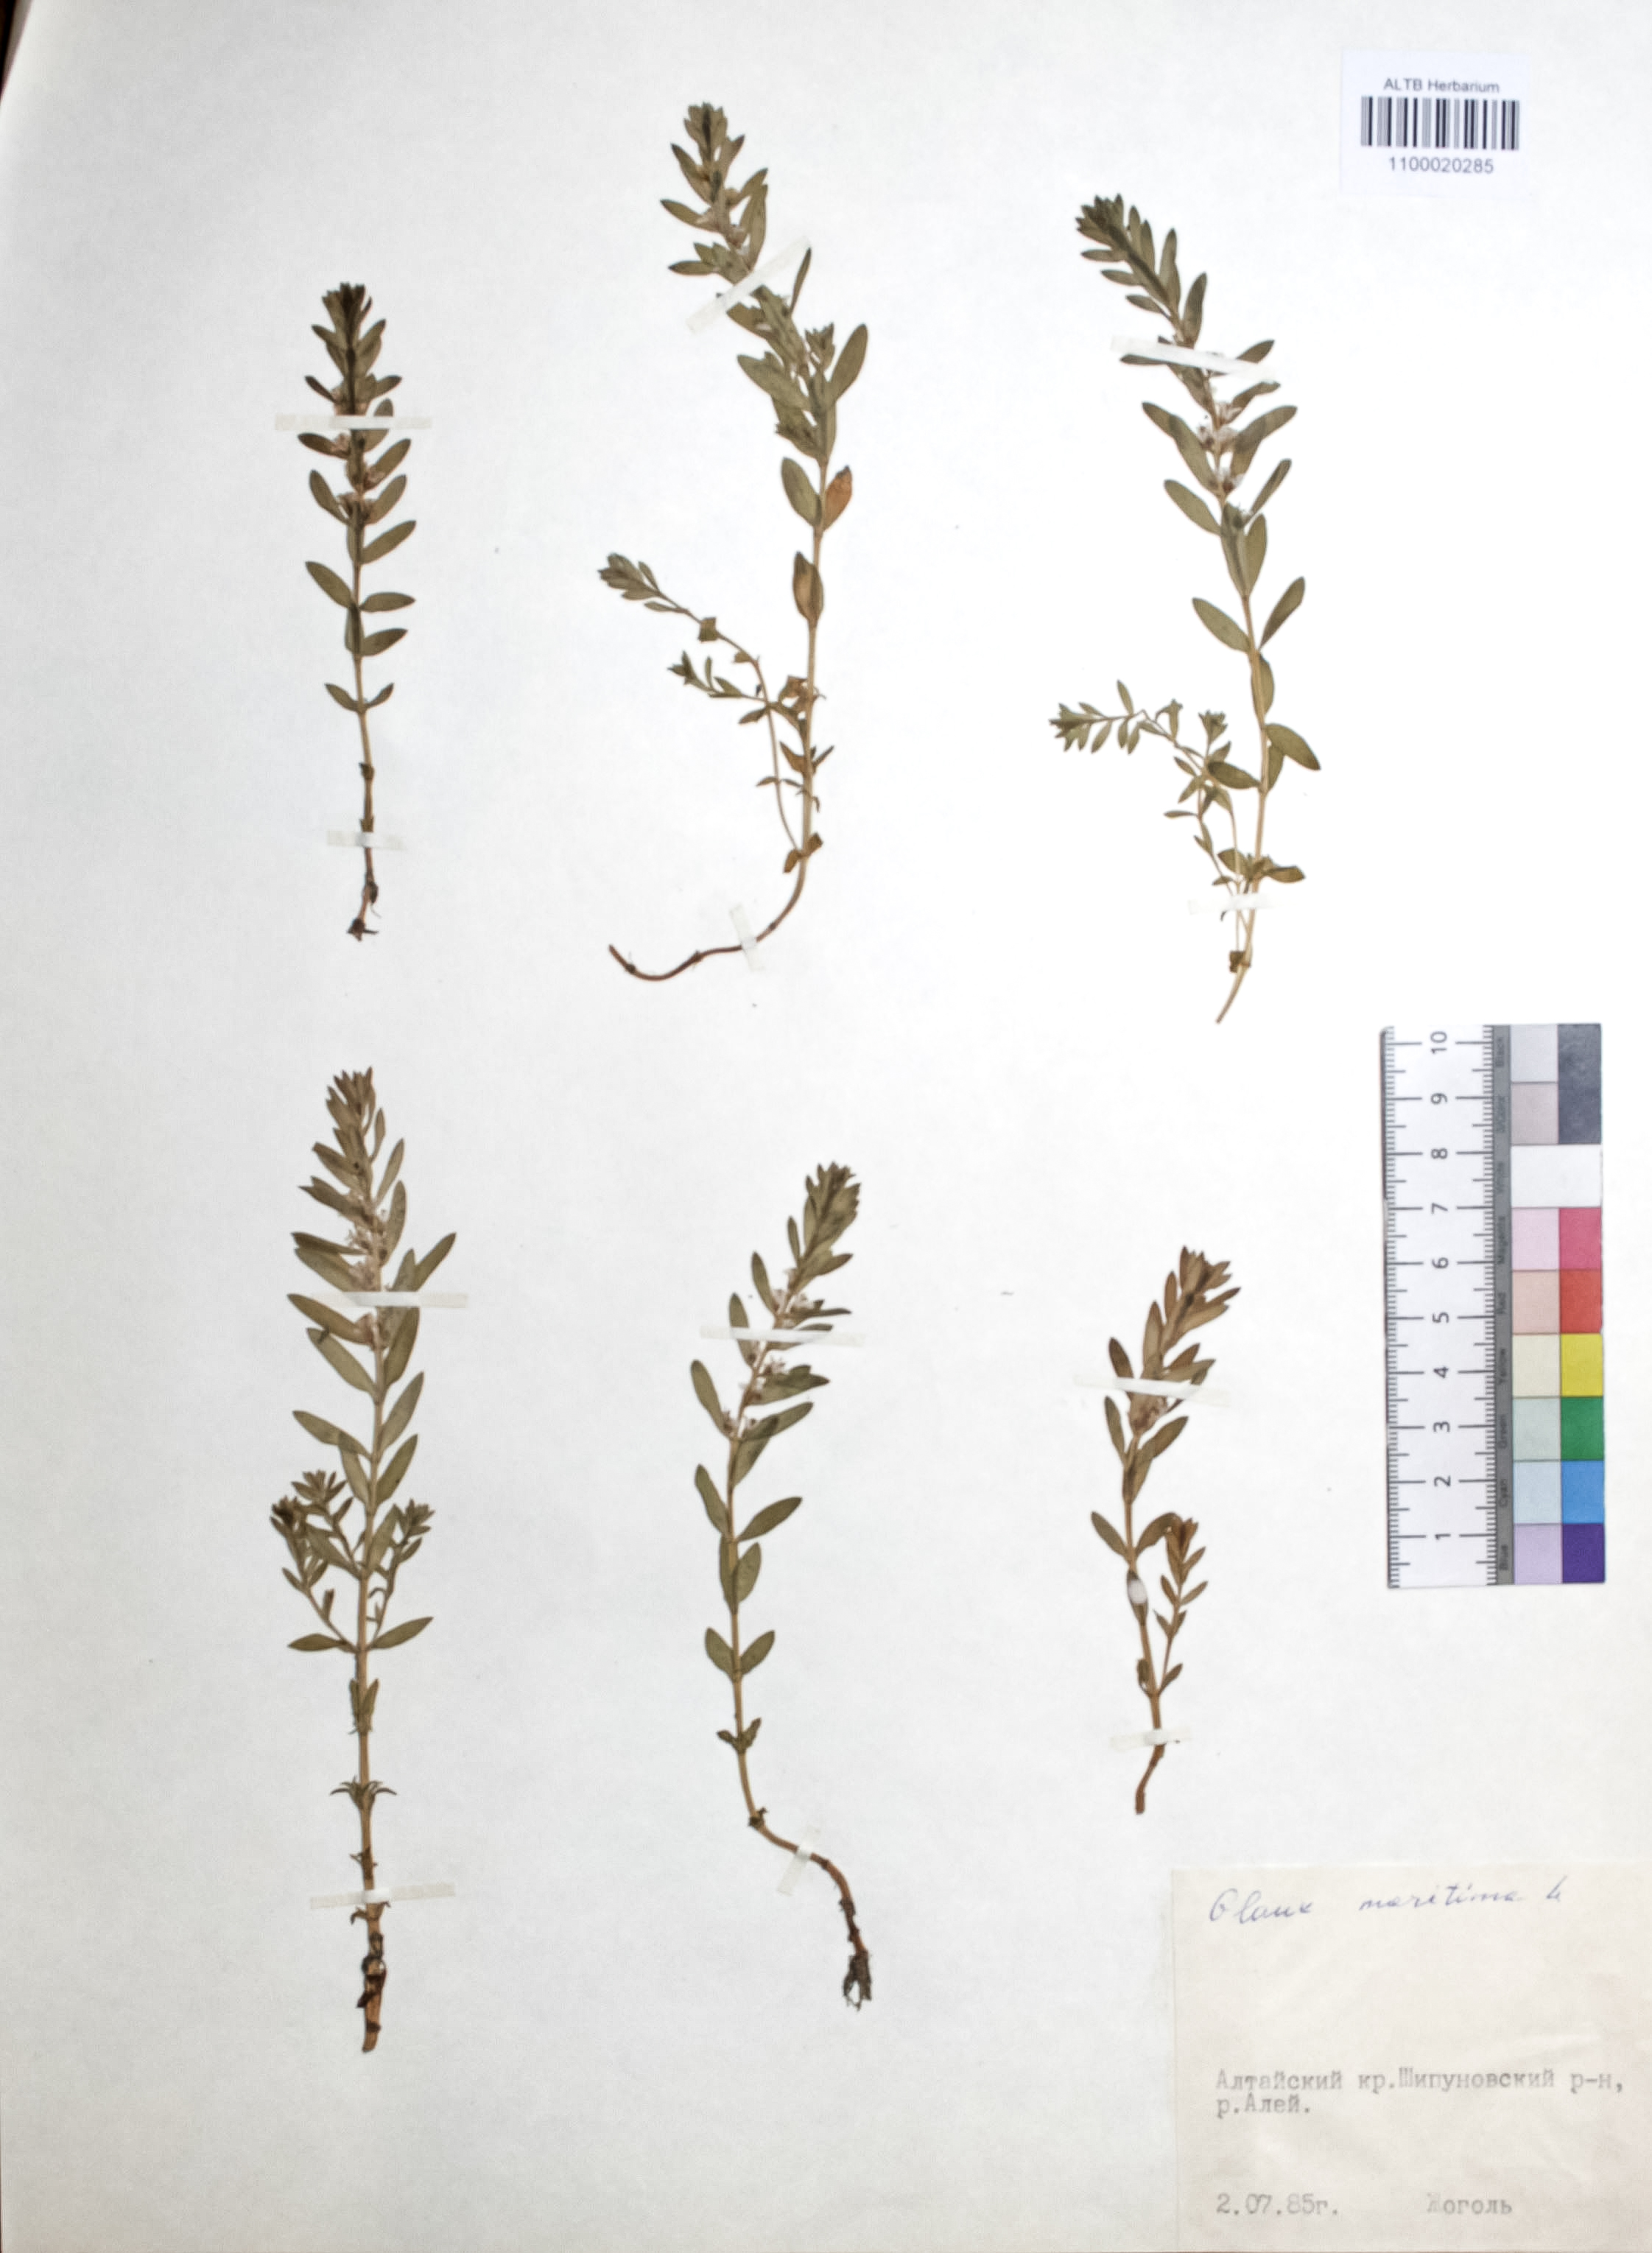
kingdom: Plantae
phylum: Tracheophyta
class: Magnoliopsida
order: Ericales
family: Primulaceae
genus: Lysimachia
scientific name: Lysimachia maritima
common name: Sea milkwort
